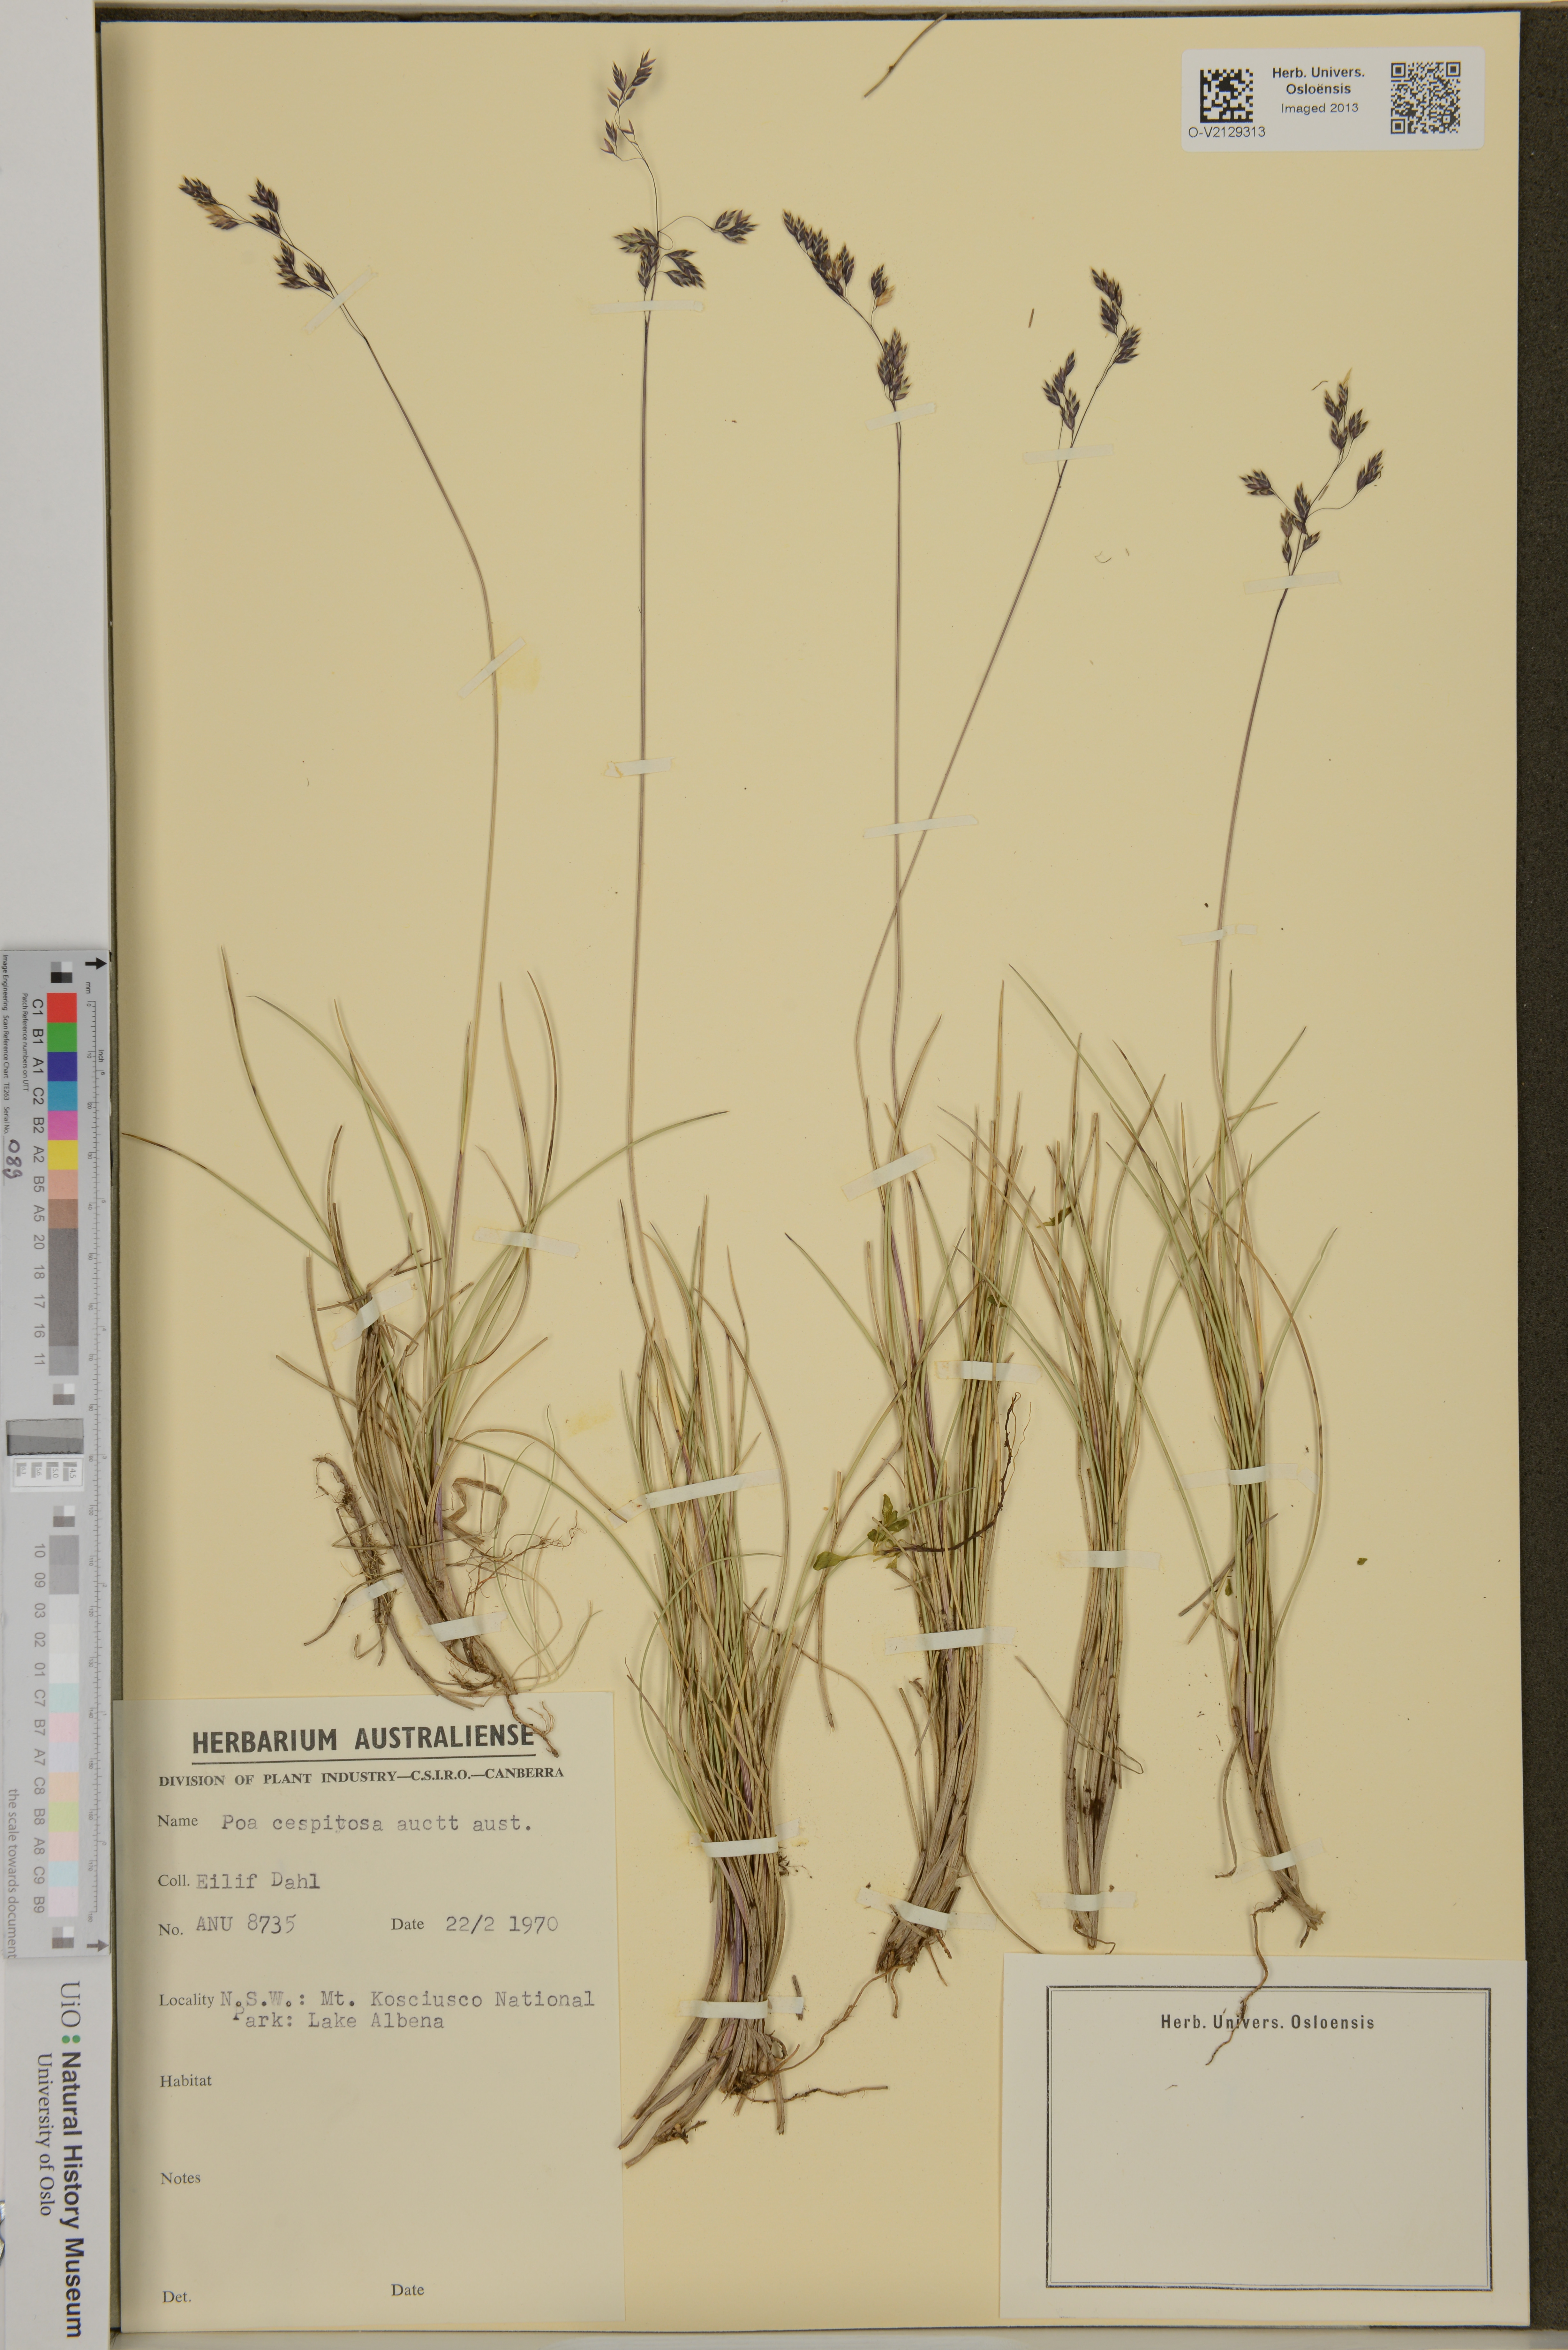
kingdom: Plantae
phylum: Tracheophyta
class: Liliopsida
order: Poales
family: Poaceae
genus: Poa
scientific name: Poa caespitosa
